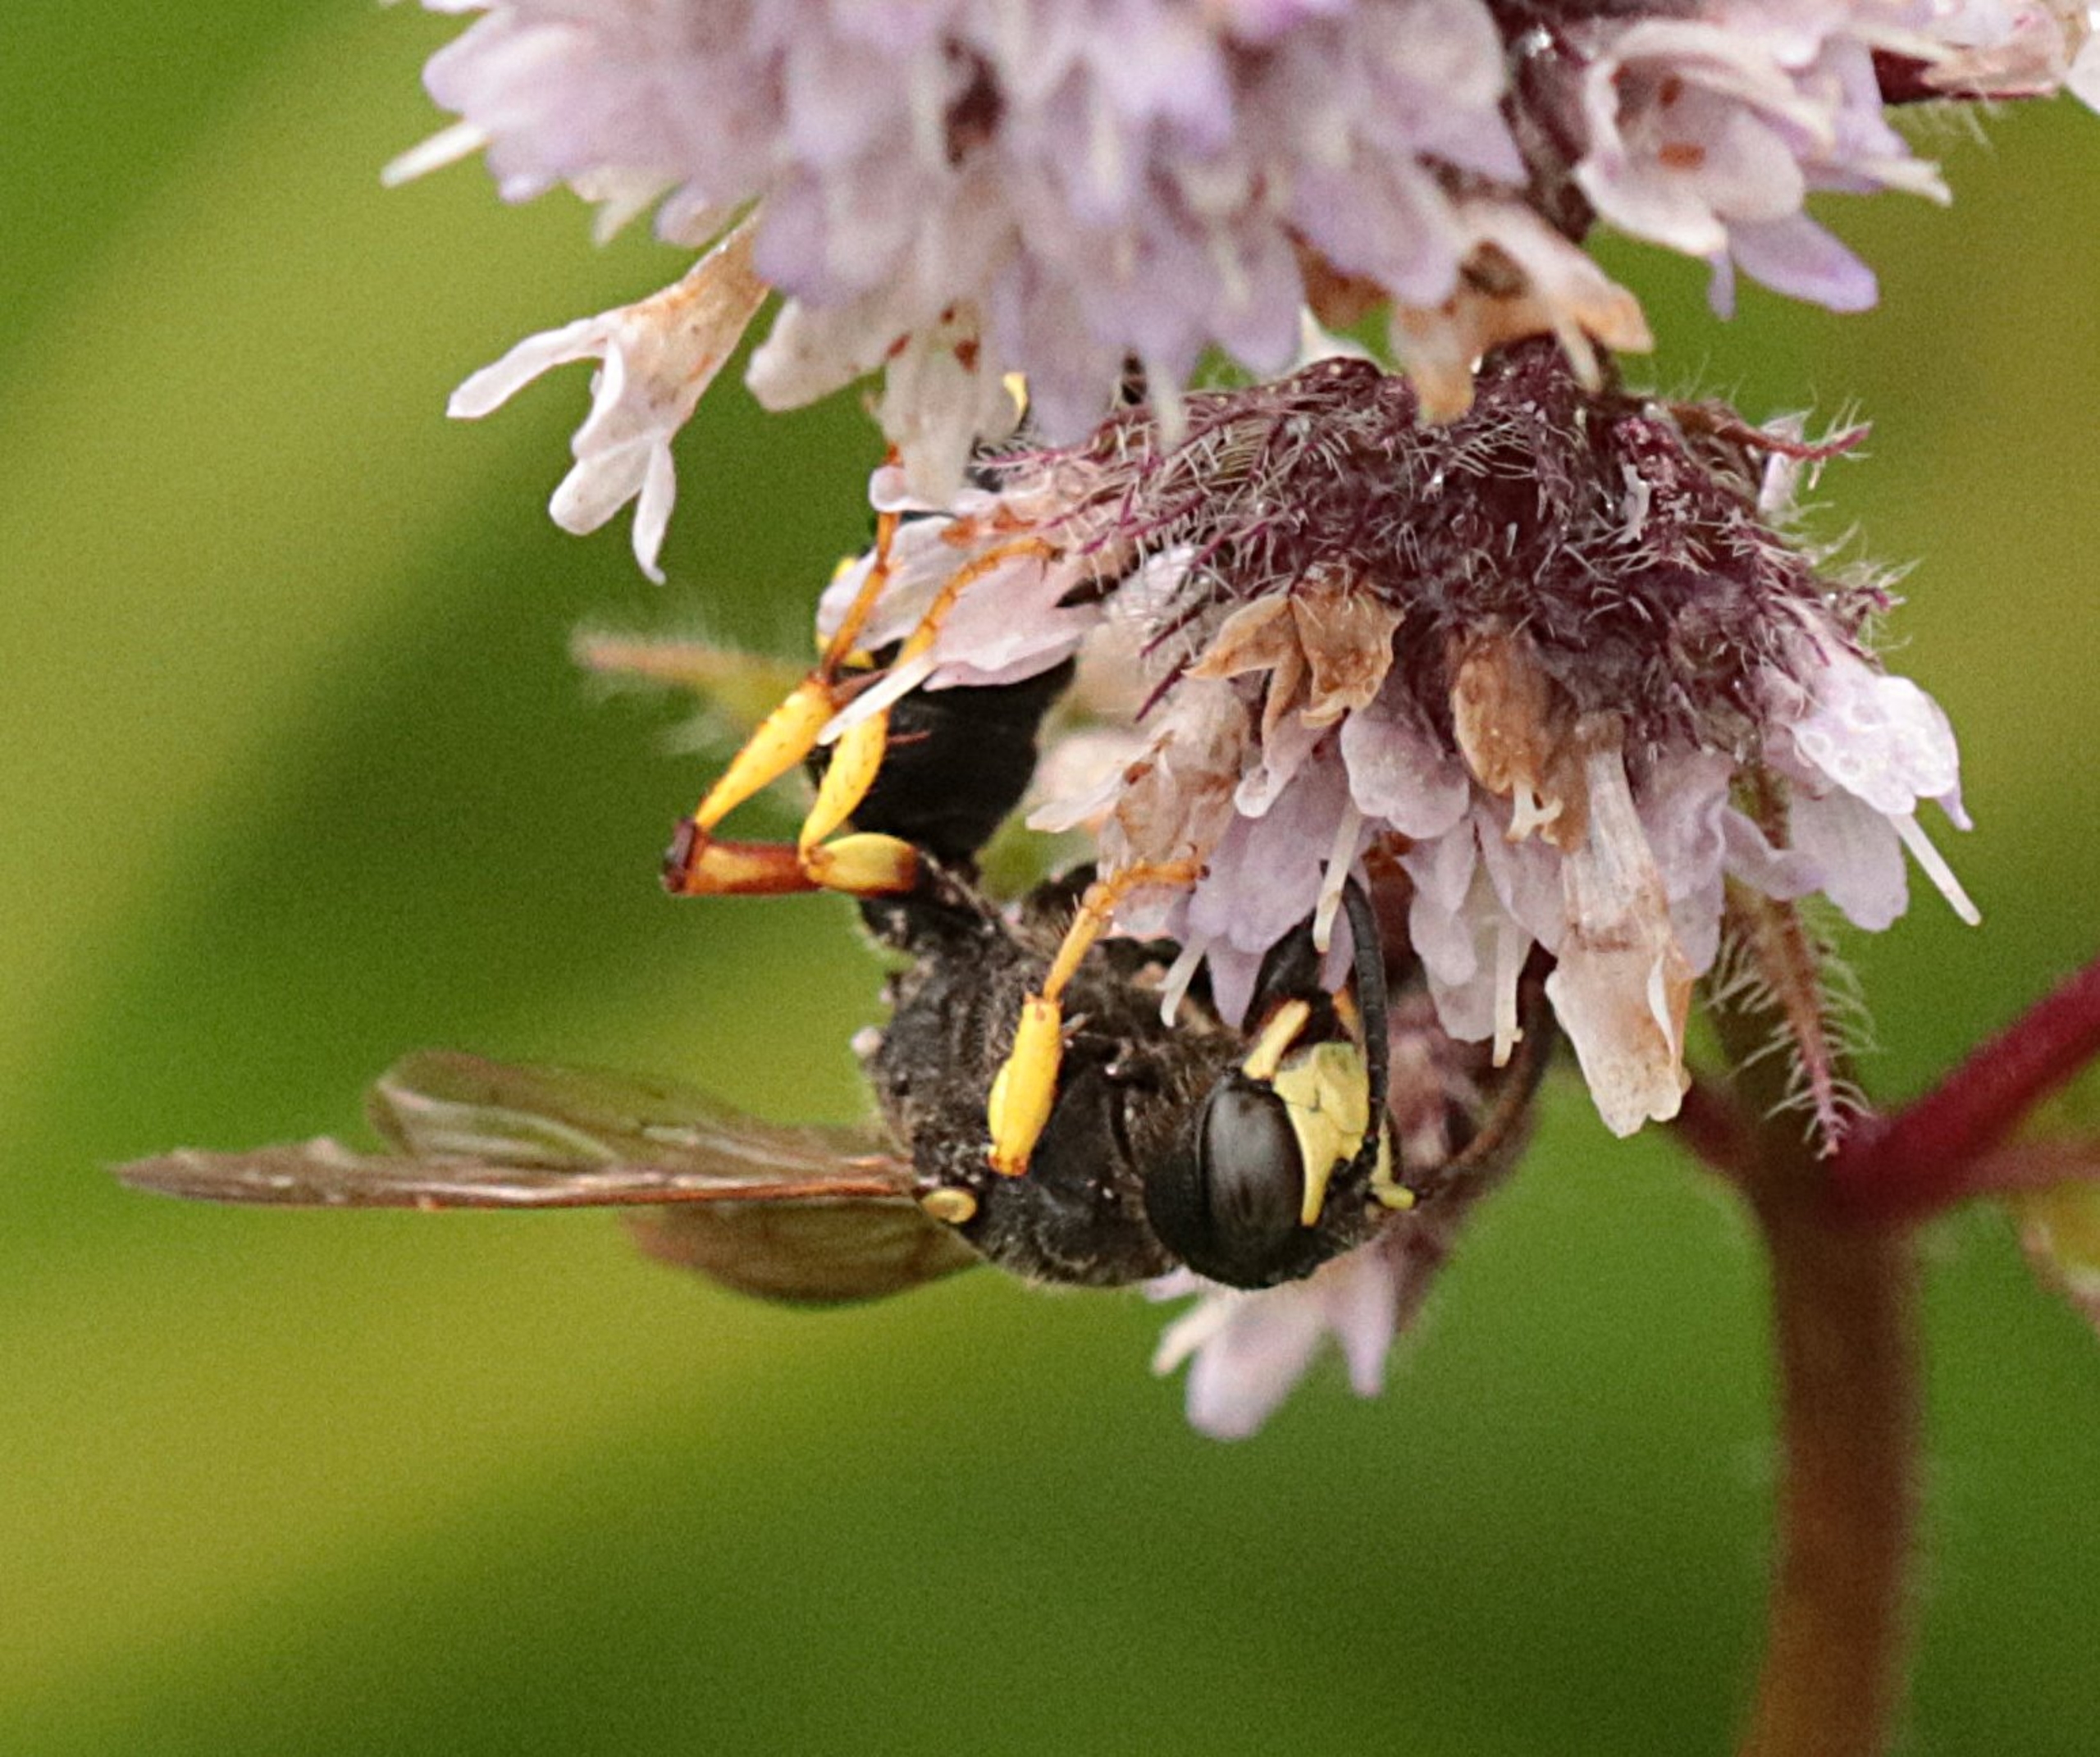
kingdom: Animalia
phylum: Arthropoda
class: Insecta
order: Hymenoptera
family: Crabronidae
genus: Cerceris
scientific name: Cerceris rybyensis
